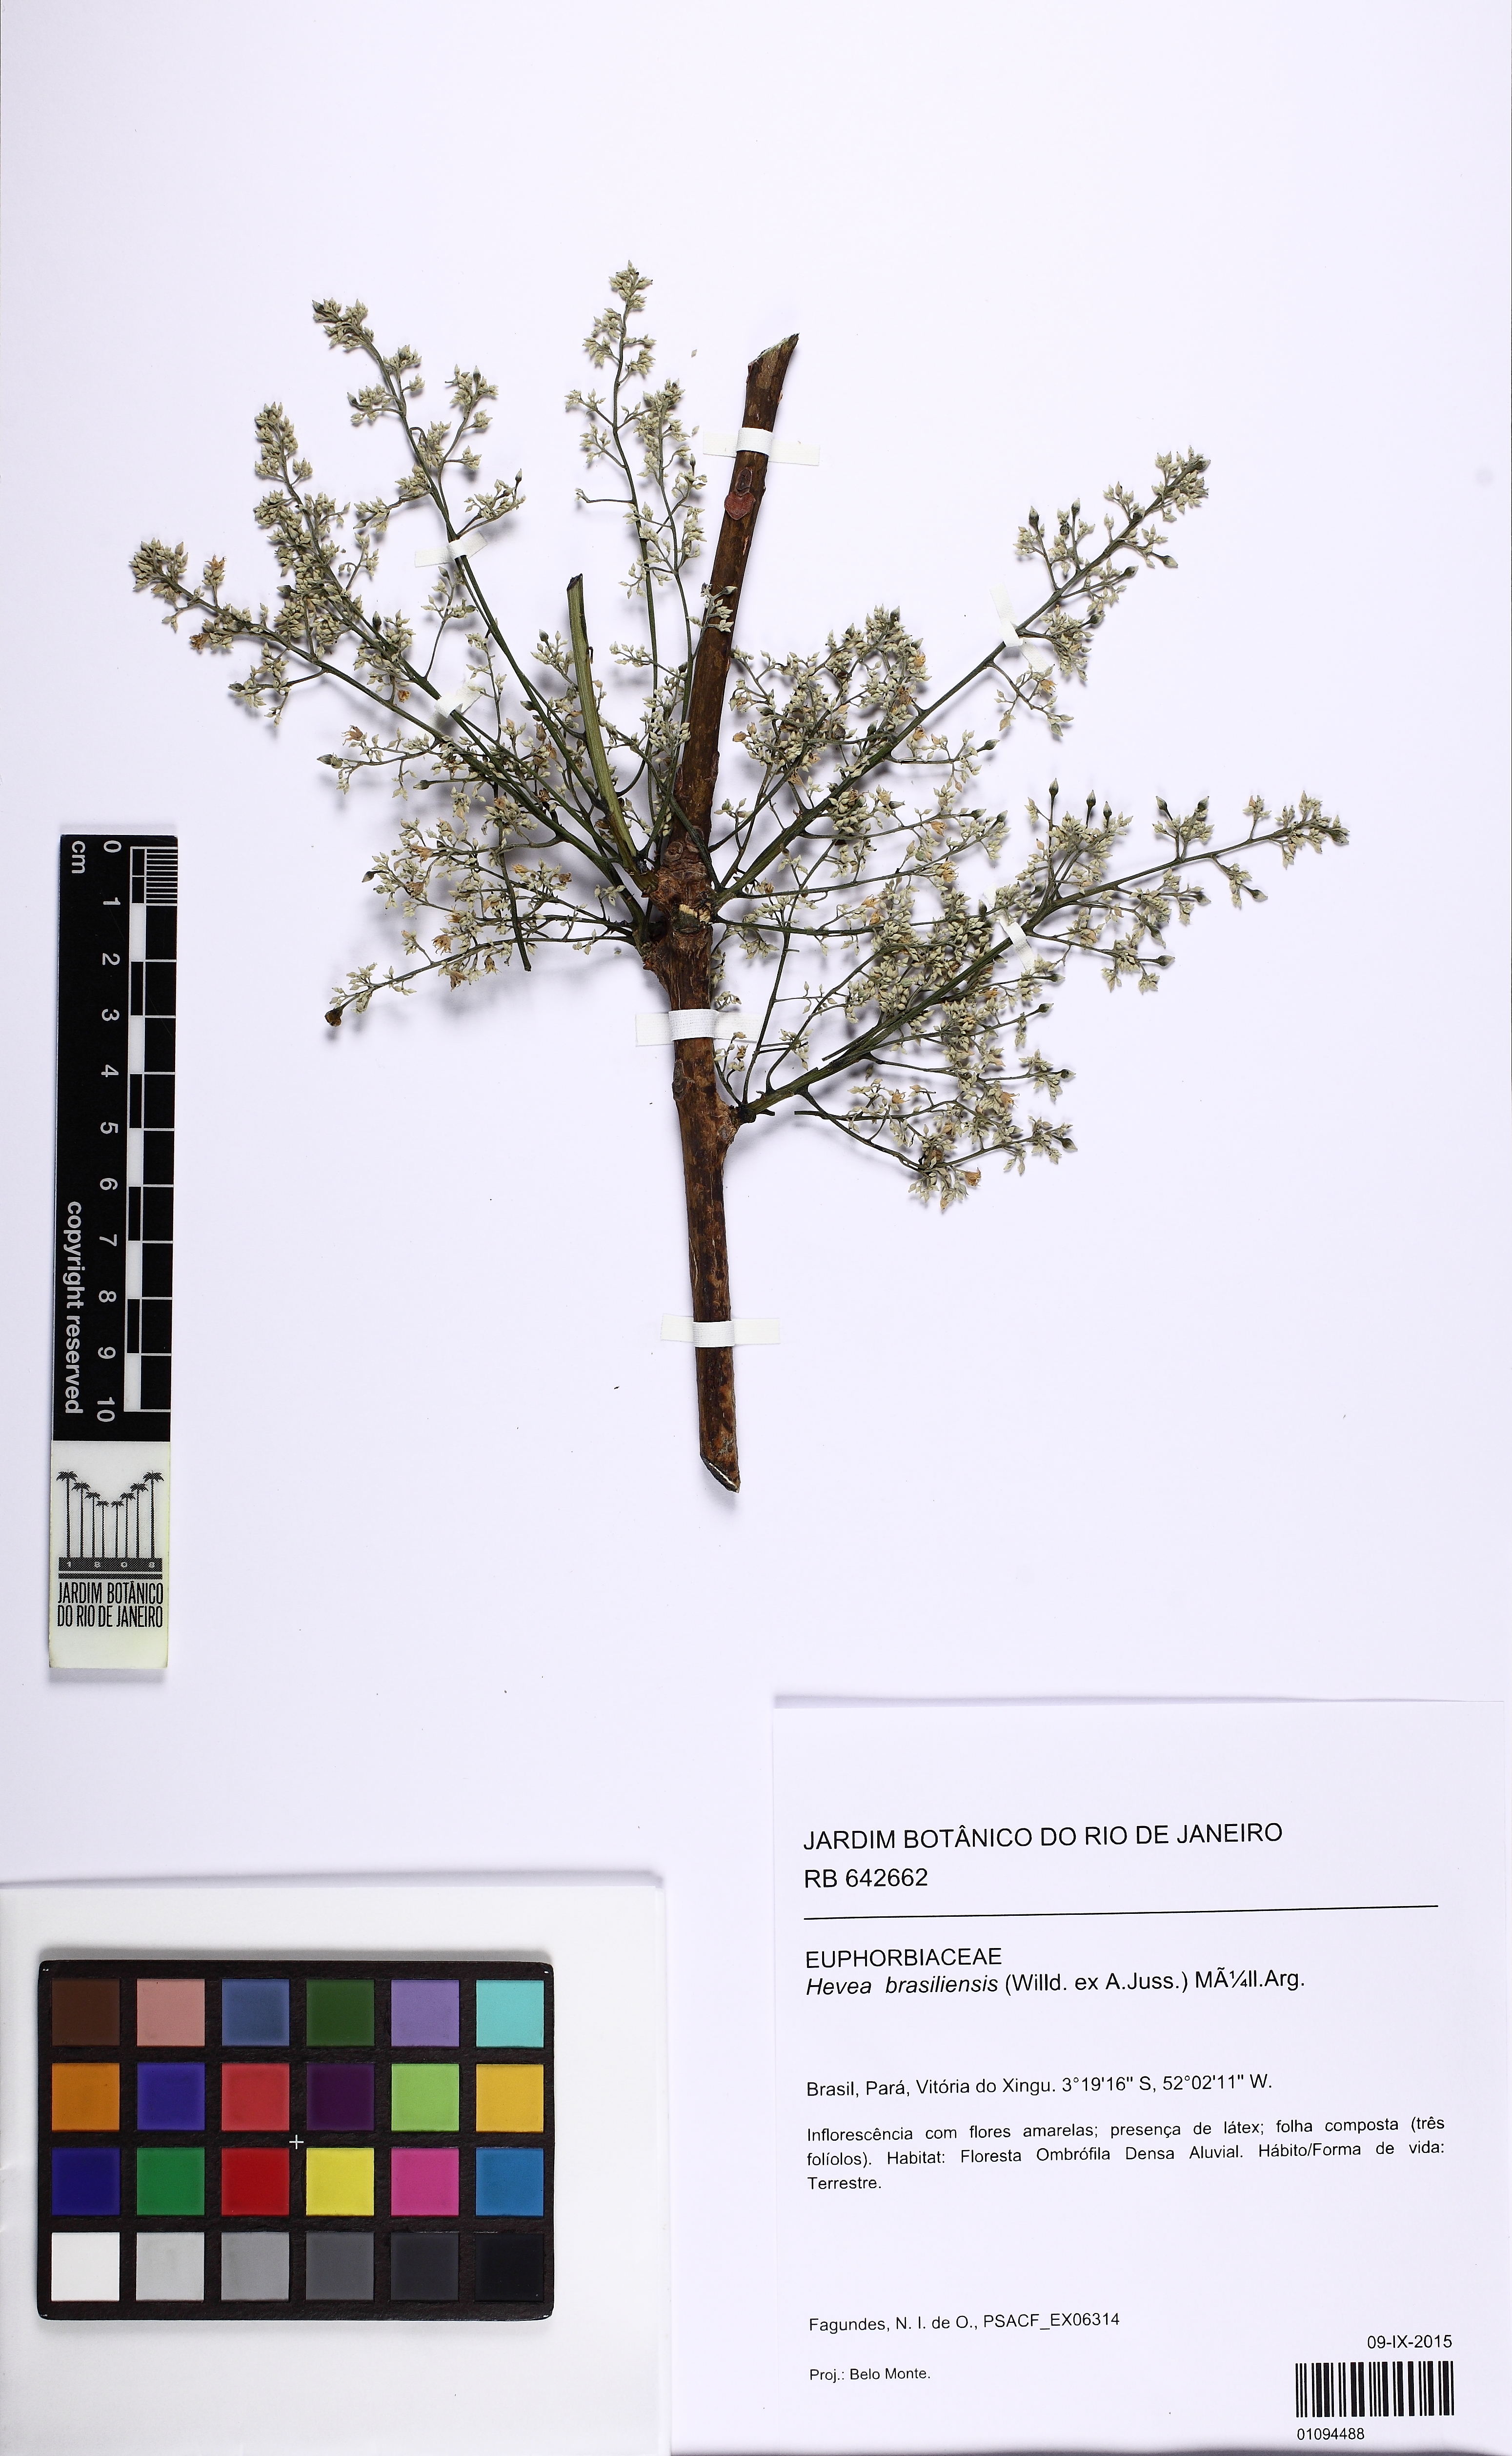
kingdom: Plantae
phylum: Tracheophyta
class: Magnoliopsida
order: Malpighiales
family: Euphorbiaceae
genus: Hevea
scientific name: Hevea brasiliensis
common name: Natural rubber
